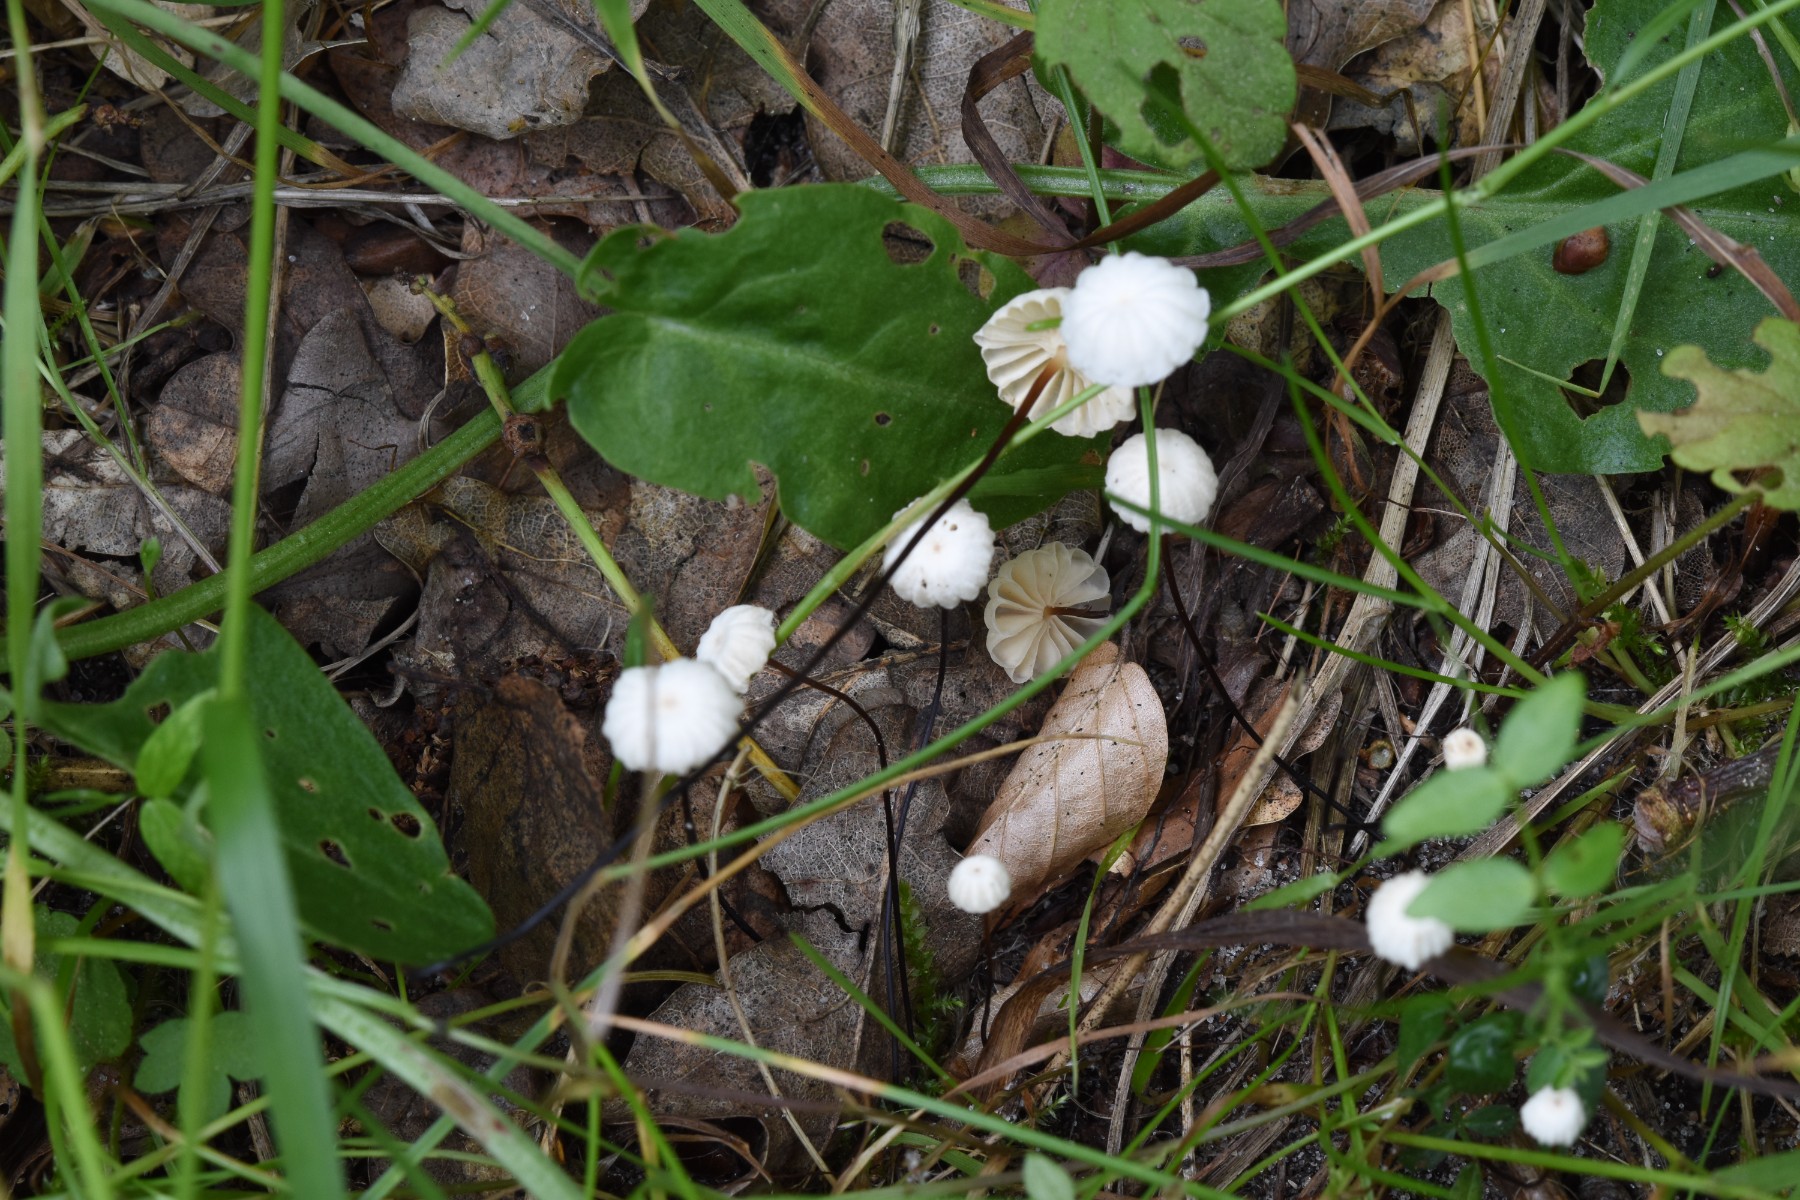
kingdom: Fungi
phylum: Basidiomycota
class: Agaricomycetes
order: Agaricales
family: Marasmiaceae
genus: Marasmius
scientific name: Marasmius rotula
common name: hjul-bruskhat
